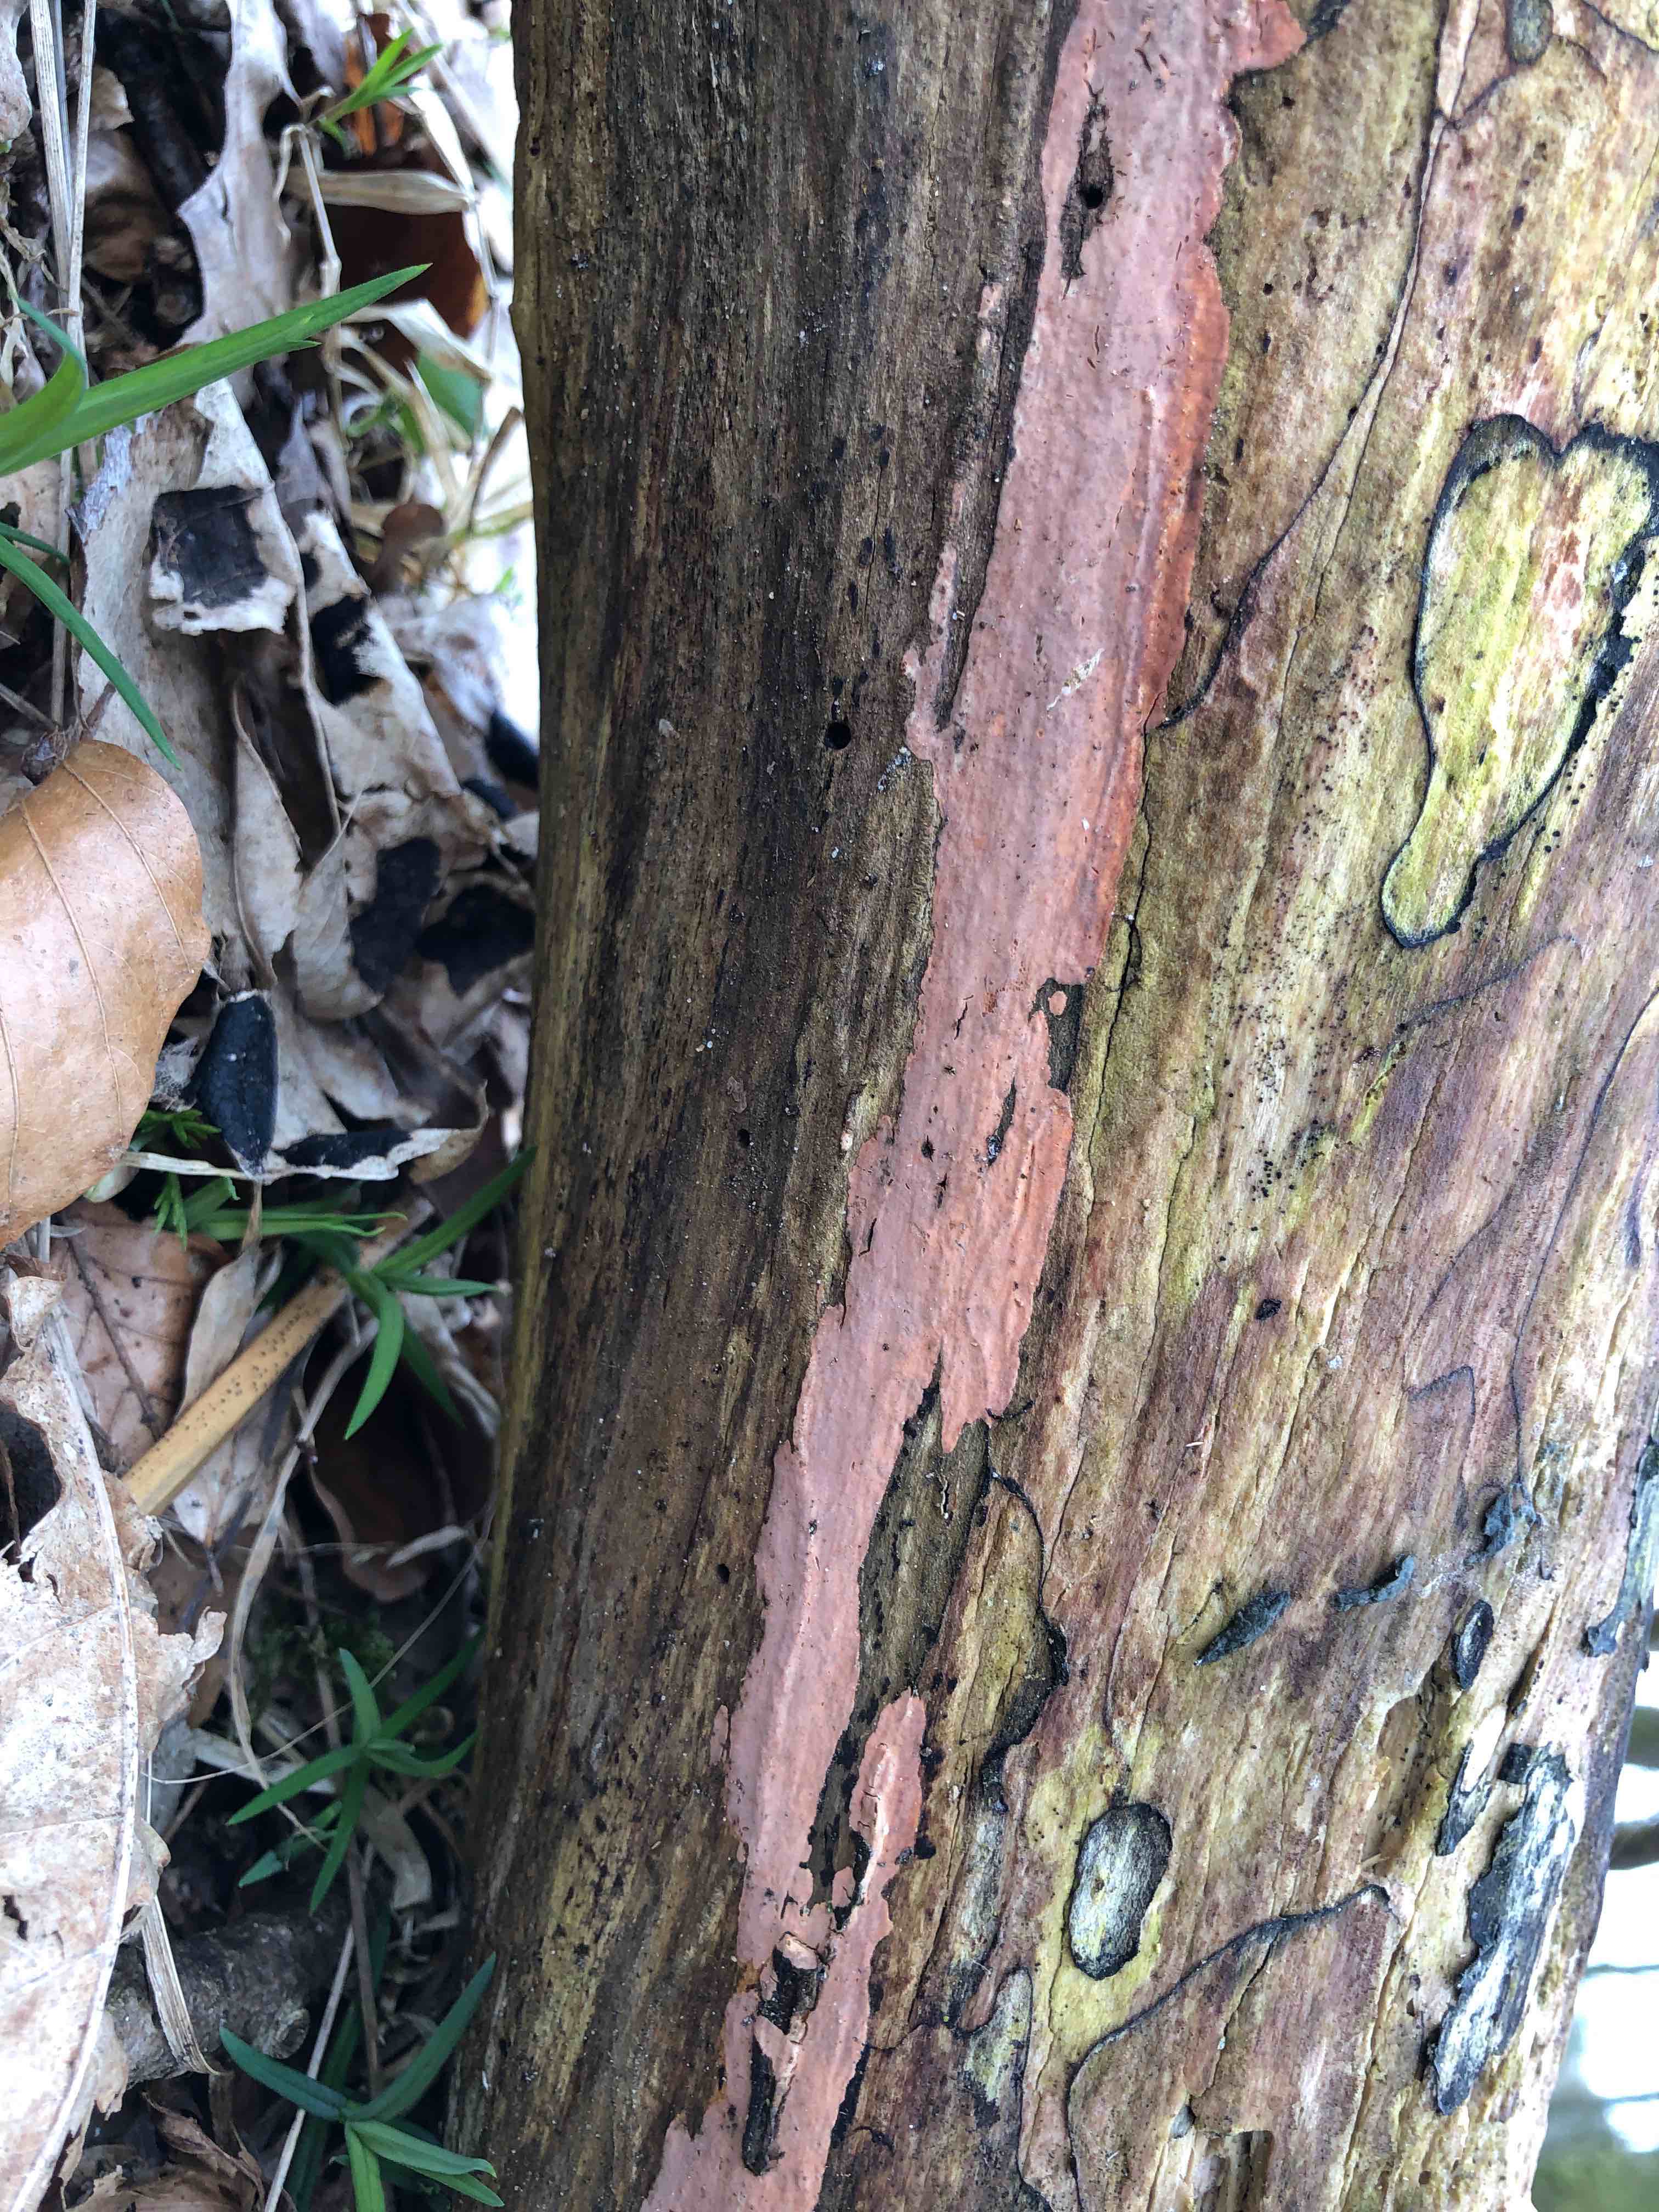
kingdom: Fungi
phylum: Basidiomycota
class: Agaricomycetes
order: Russulales
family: Peniophoraceae
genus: Peniophora
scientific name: Peniophora incarnata
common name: laksefarvet voksskind
